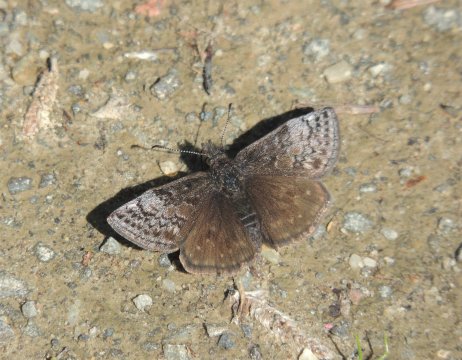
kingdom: Animalia
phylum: Arthropoda
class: Insecta
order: Lepidoptera
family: Hesperiidae
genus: Erynnis
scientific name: Erynnis icelus
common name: Dreamy Duskywing
